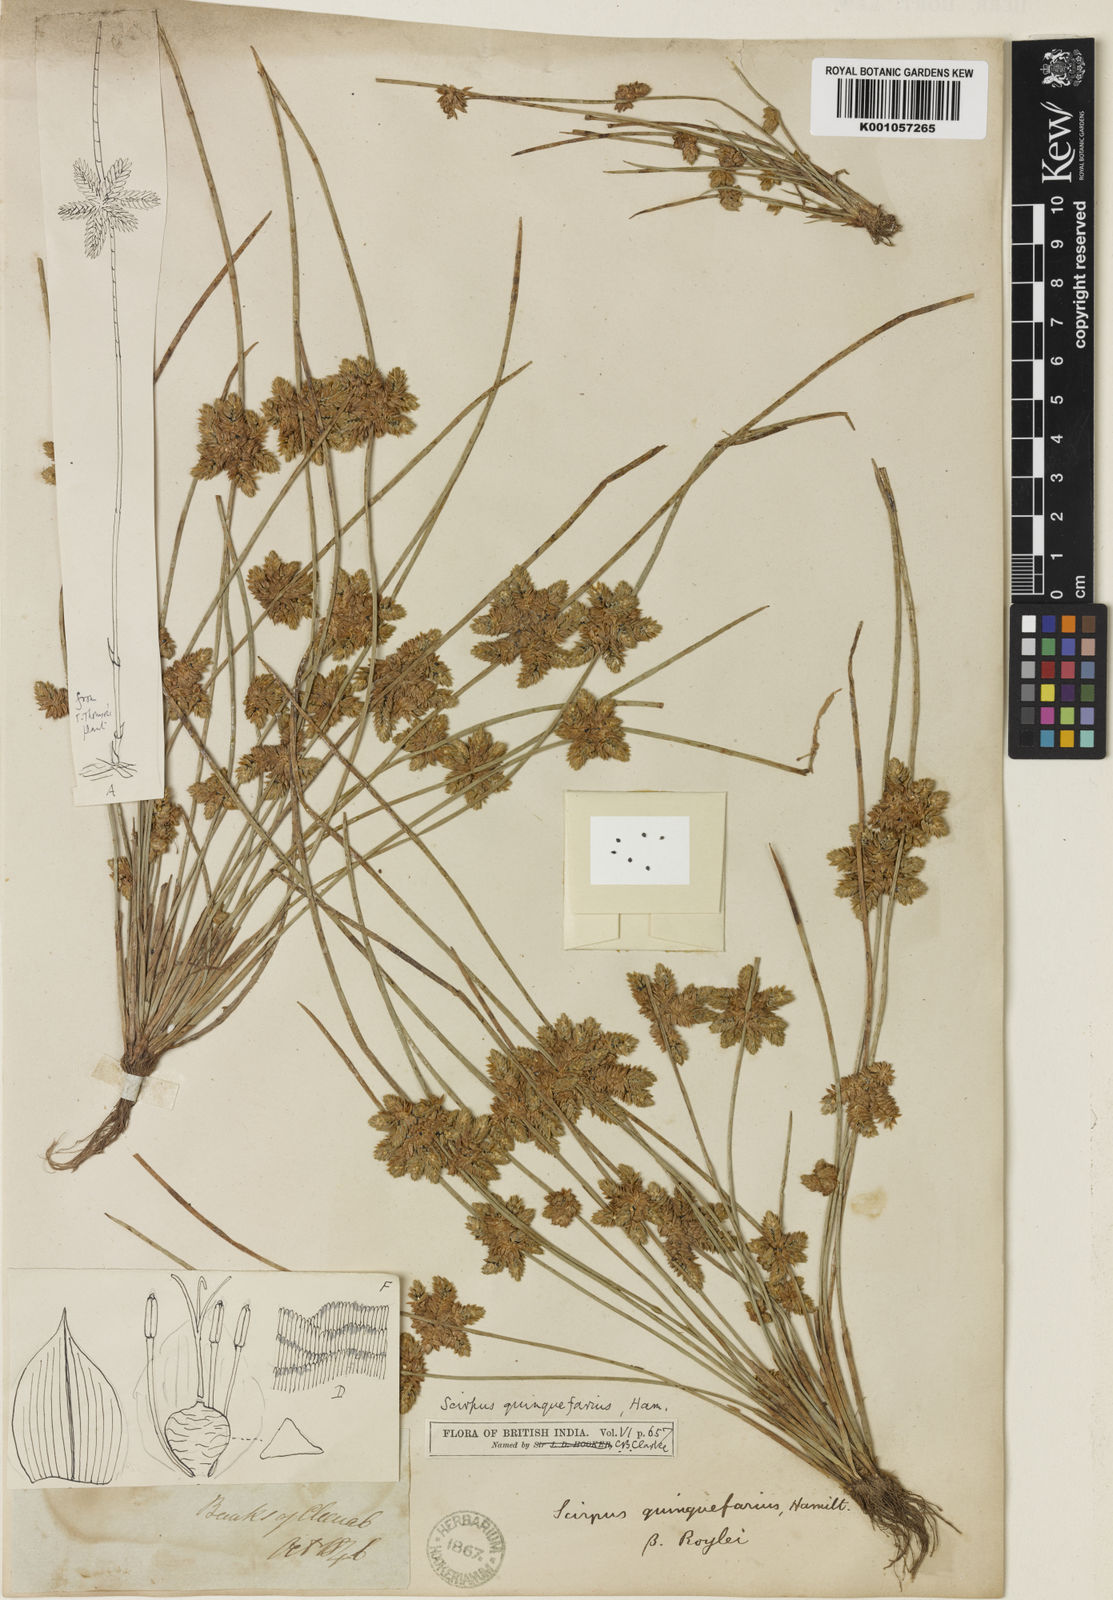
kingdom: Plantae
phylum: Tracheophyta
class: Liliopsida
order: Poales
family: Cyperaceae
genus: Schoenoplectiella
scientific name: Schoenoplectiella roylei
